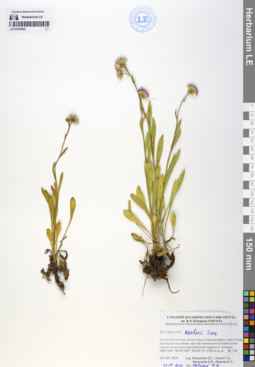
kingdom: Plantae
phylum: Tracheophyta
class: Magnoliopsida
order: Asterales
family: Asteraceae
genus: Erigeron
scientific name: Erigeron krylovii
